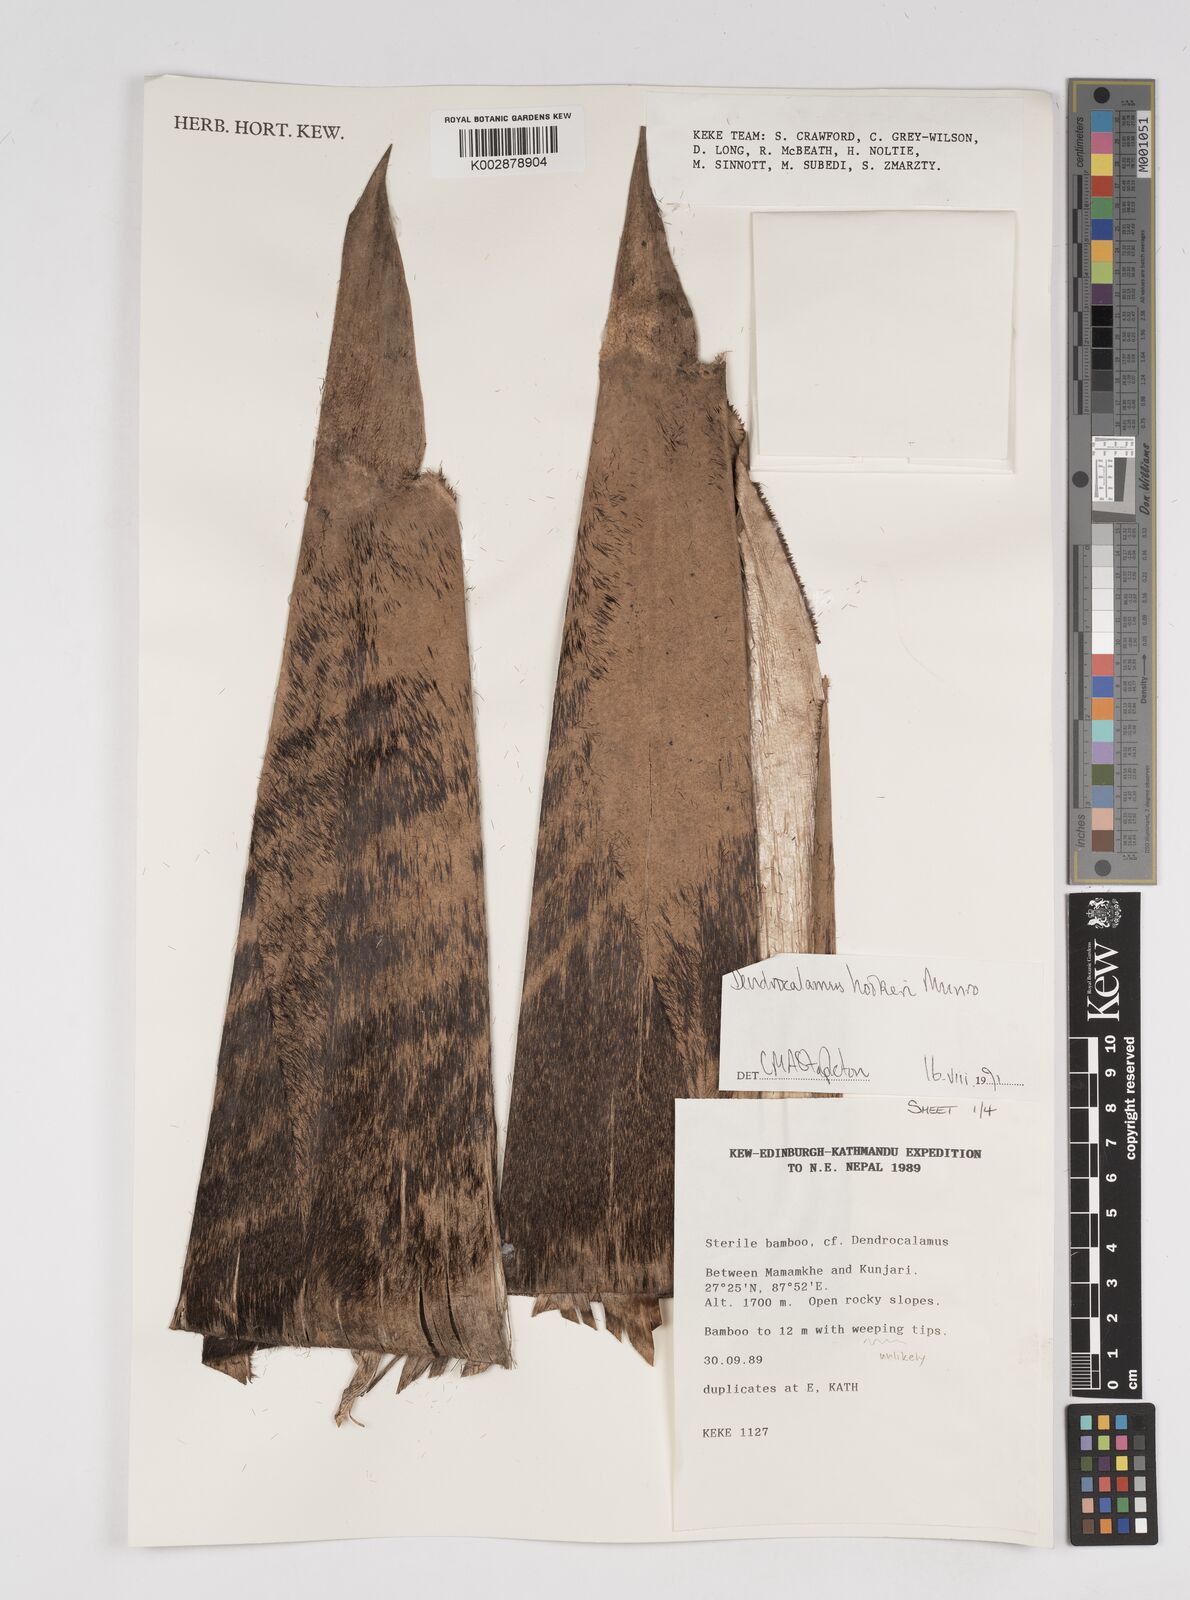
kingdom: Plantae
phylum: Tracheophyta
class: Liliopsida
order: Poales
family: Poaceae
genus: Dendrocalamus
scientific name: Dendrocalamus hookeri
